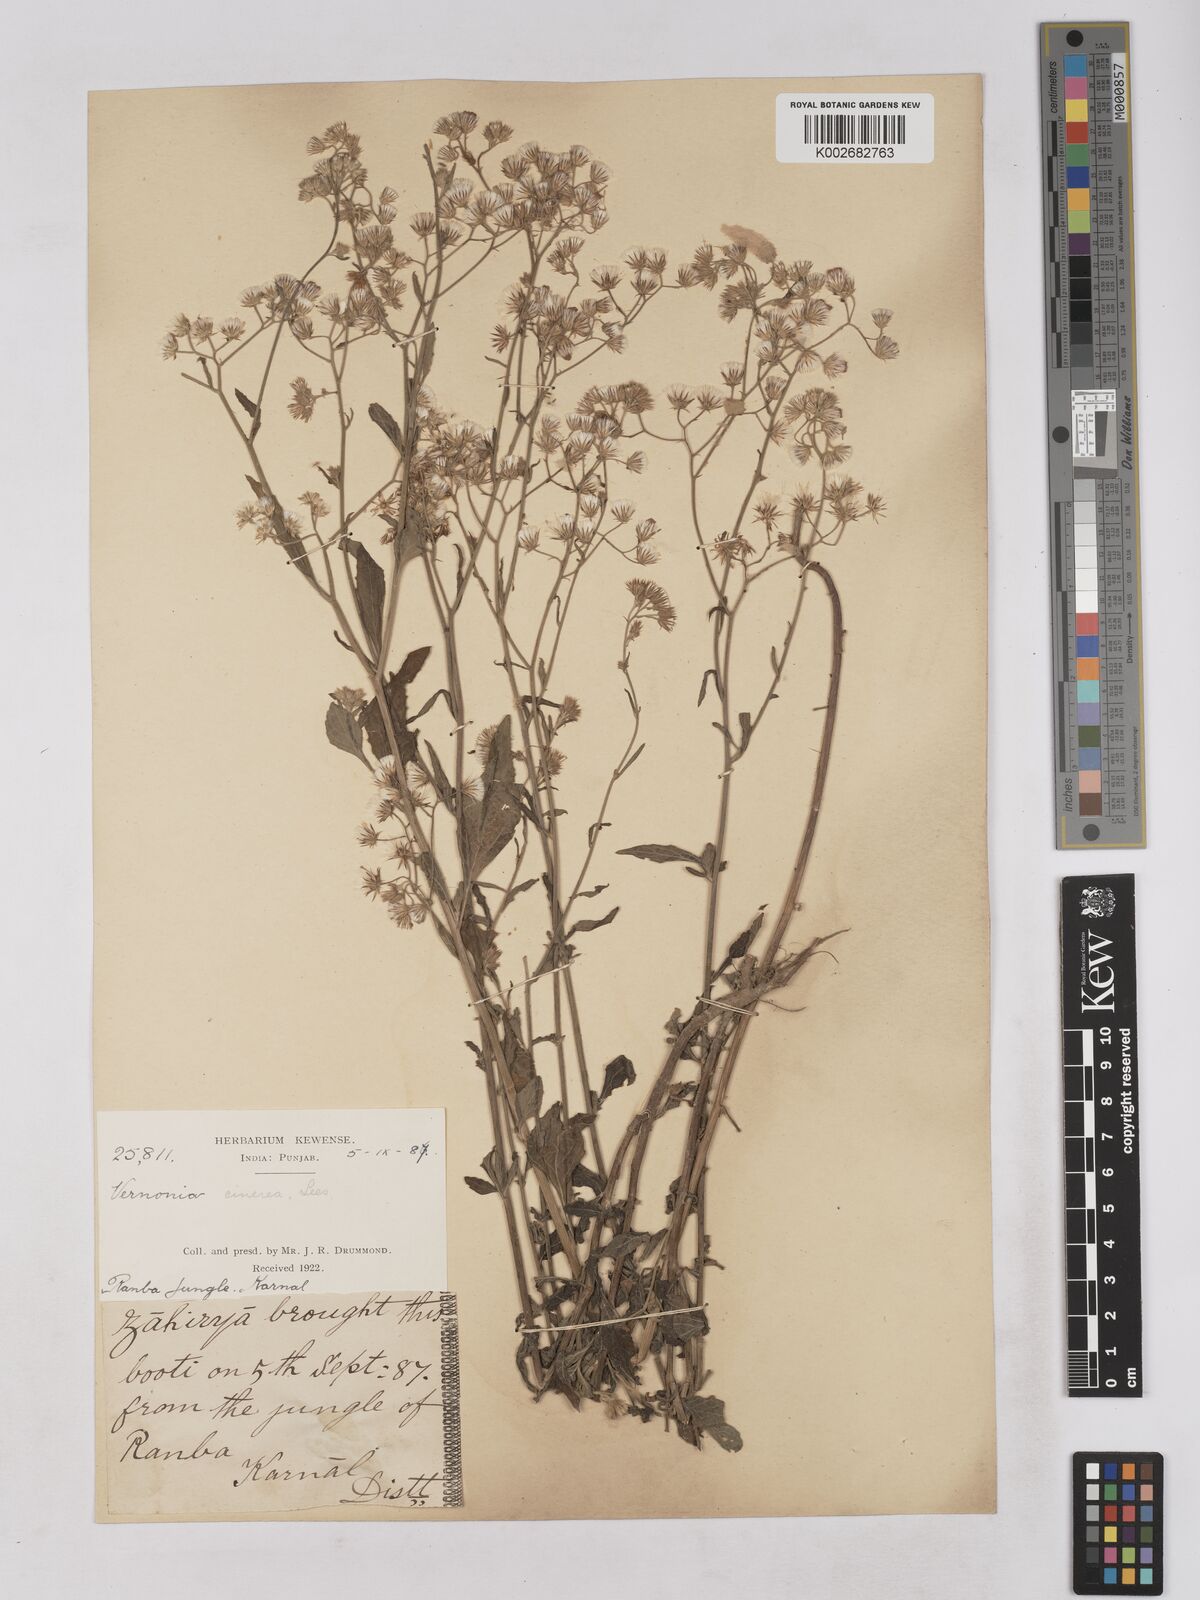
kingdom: Plantae
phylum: Tracheophyta
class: Magnoliopsida
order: Asterales
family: Asteraceae
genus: Cyanthillium
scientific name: Cyanthillium cinereum
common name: Little ironweed
